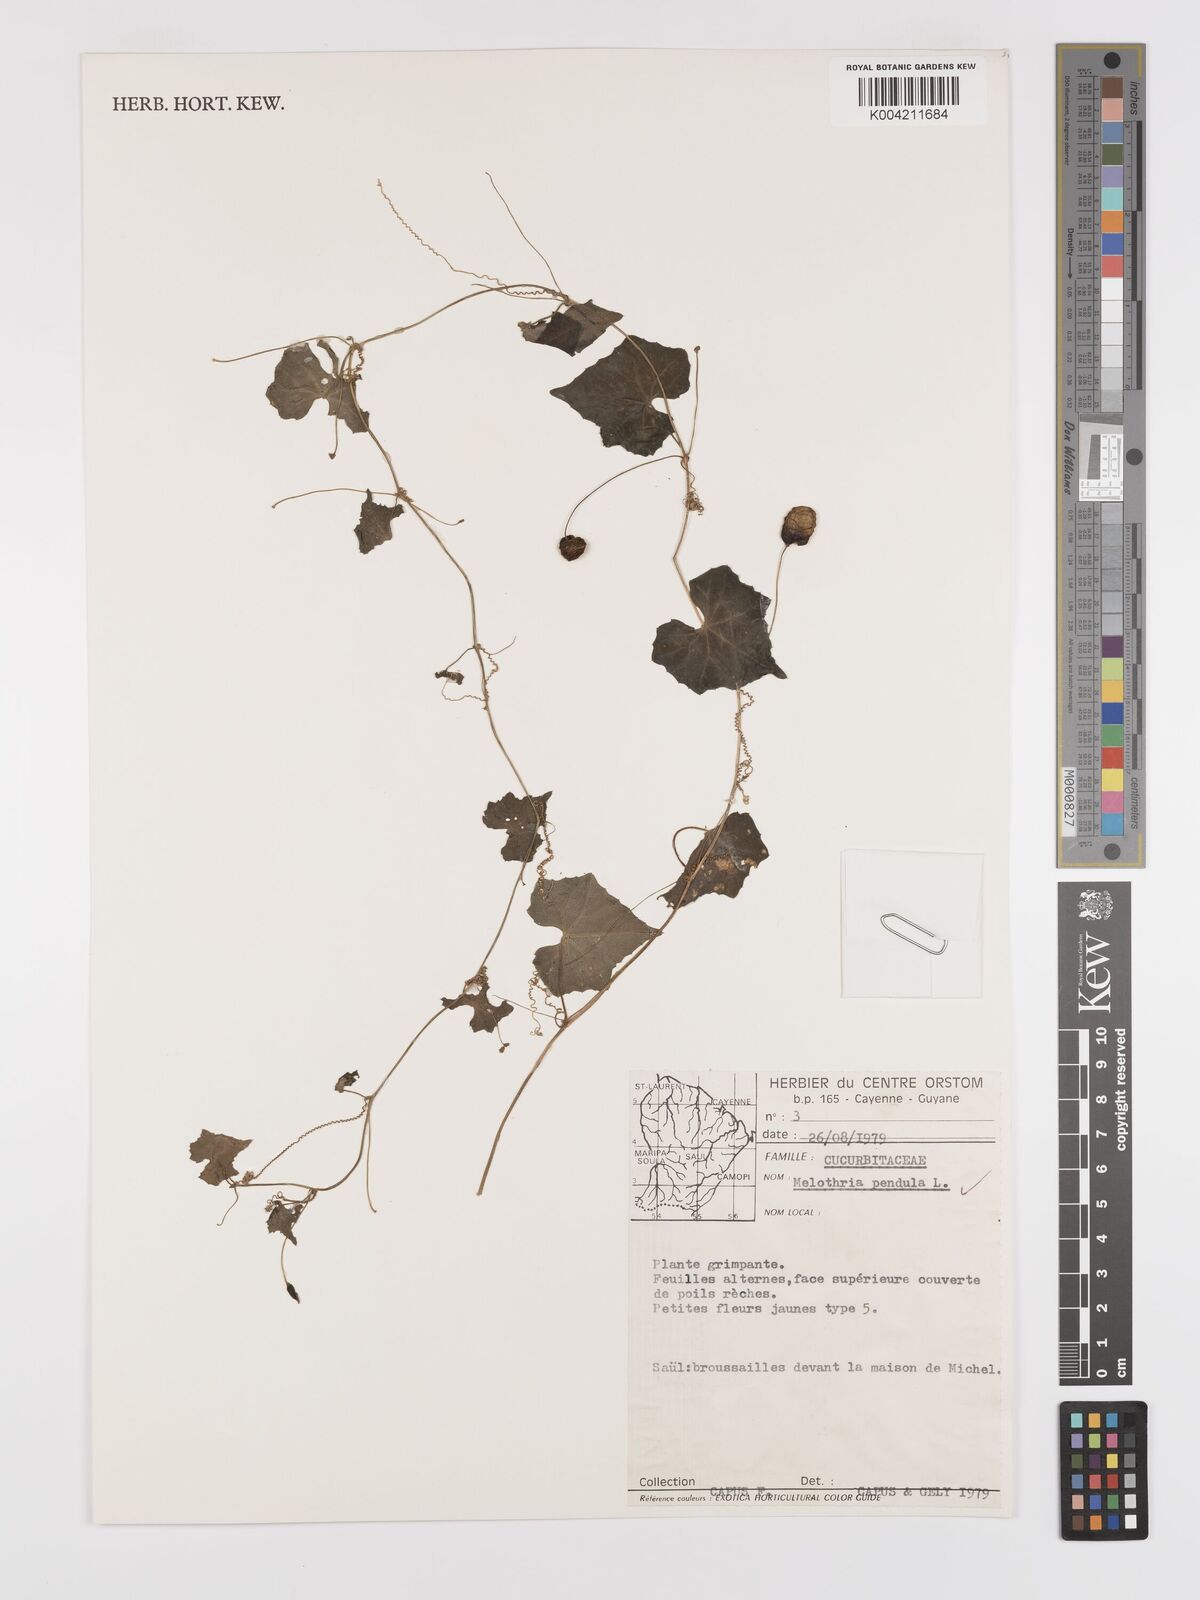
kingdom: Plantae
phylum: Tracheophyta
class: Magnoliopsida
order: Cucurbitales
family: Cucurbitaceae
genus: Melothria
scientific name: Melothria pendula
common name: Creeping-cucumber
